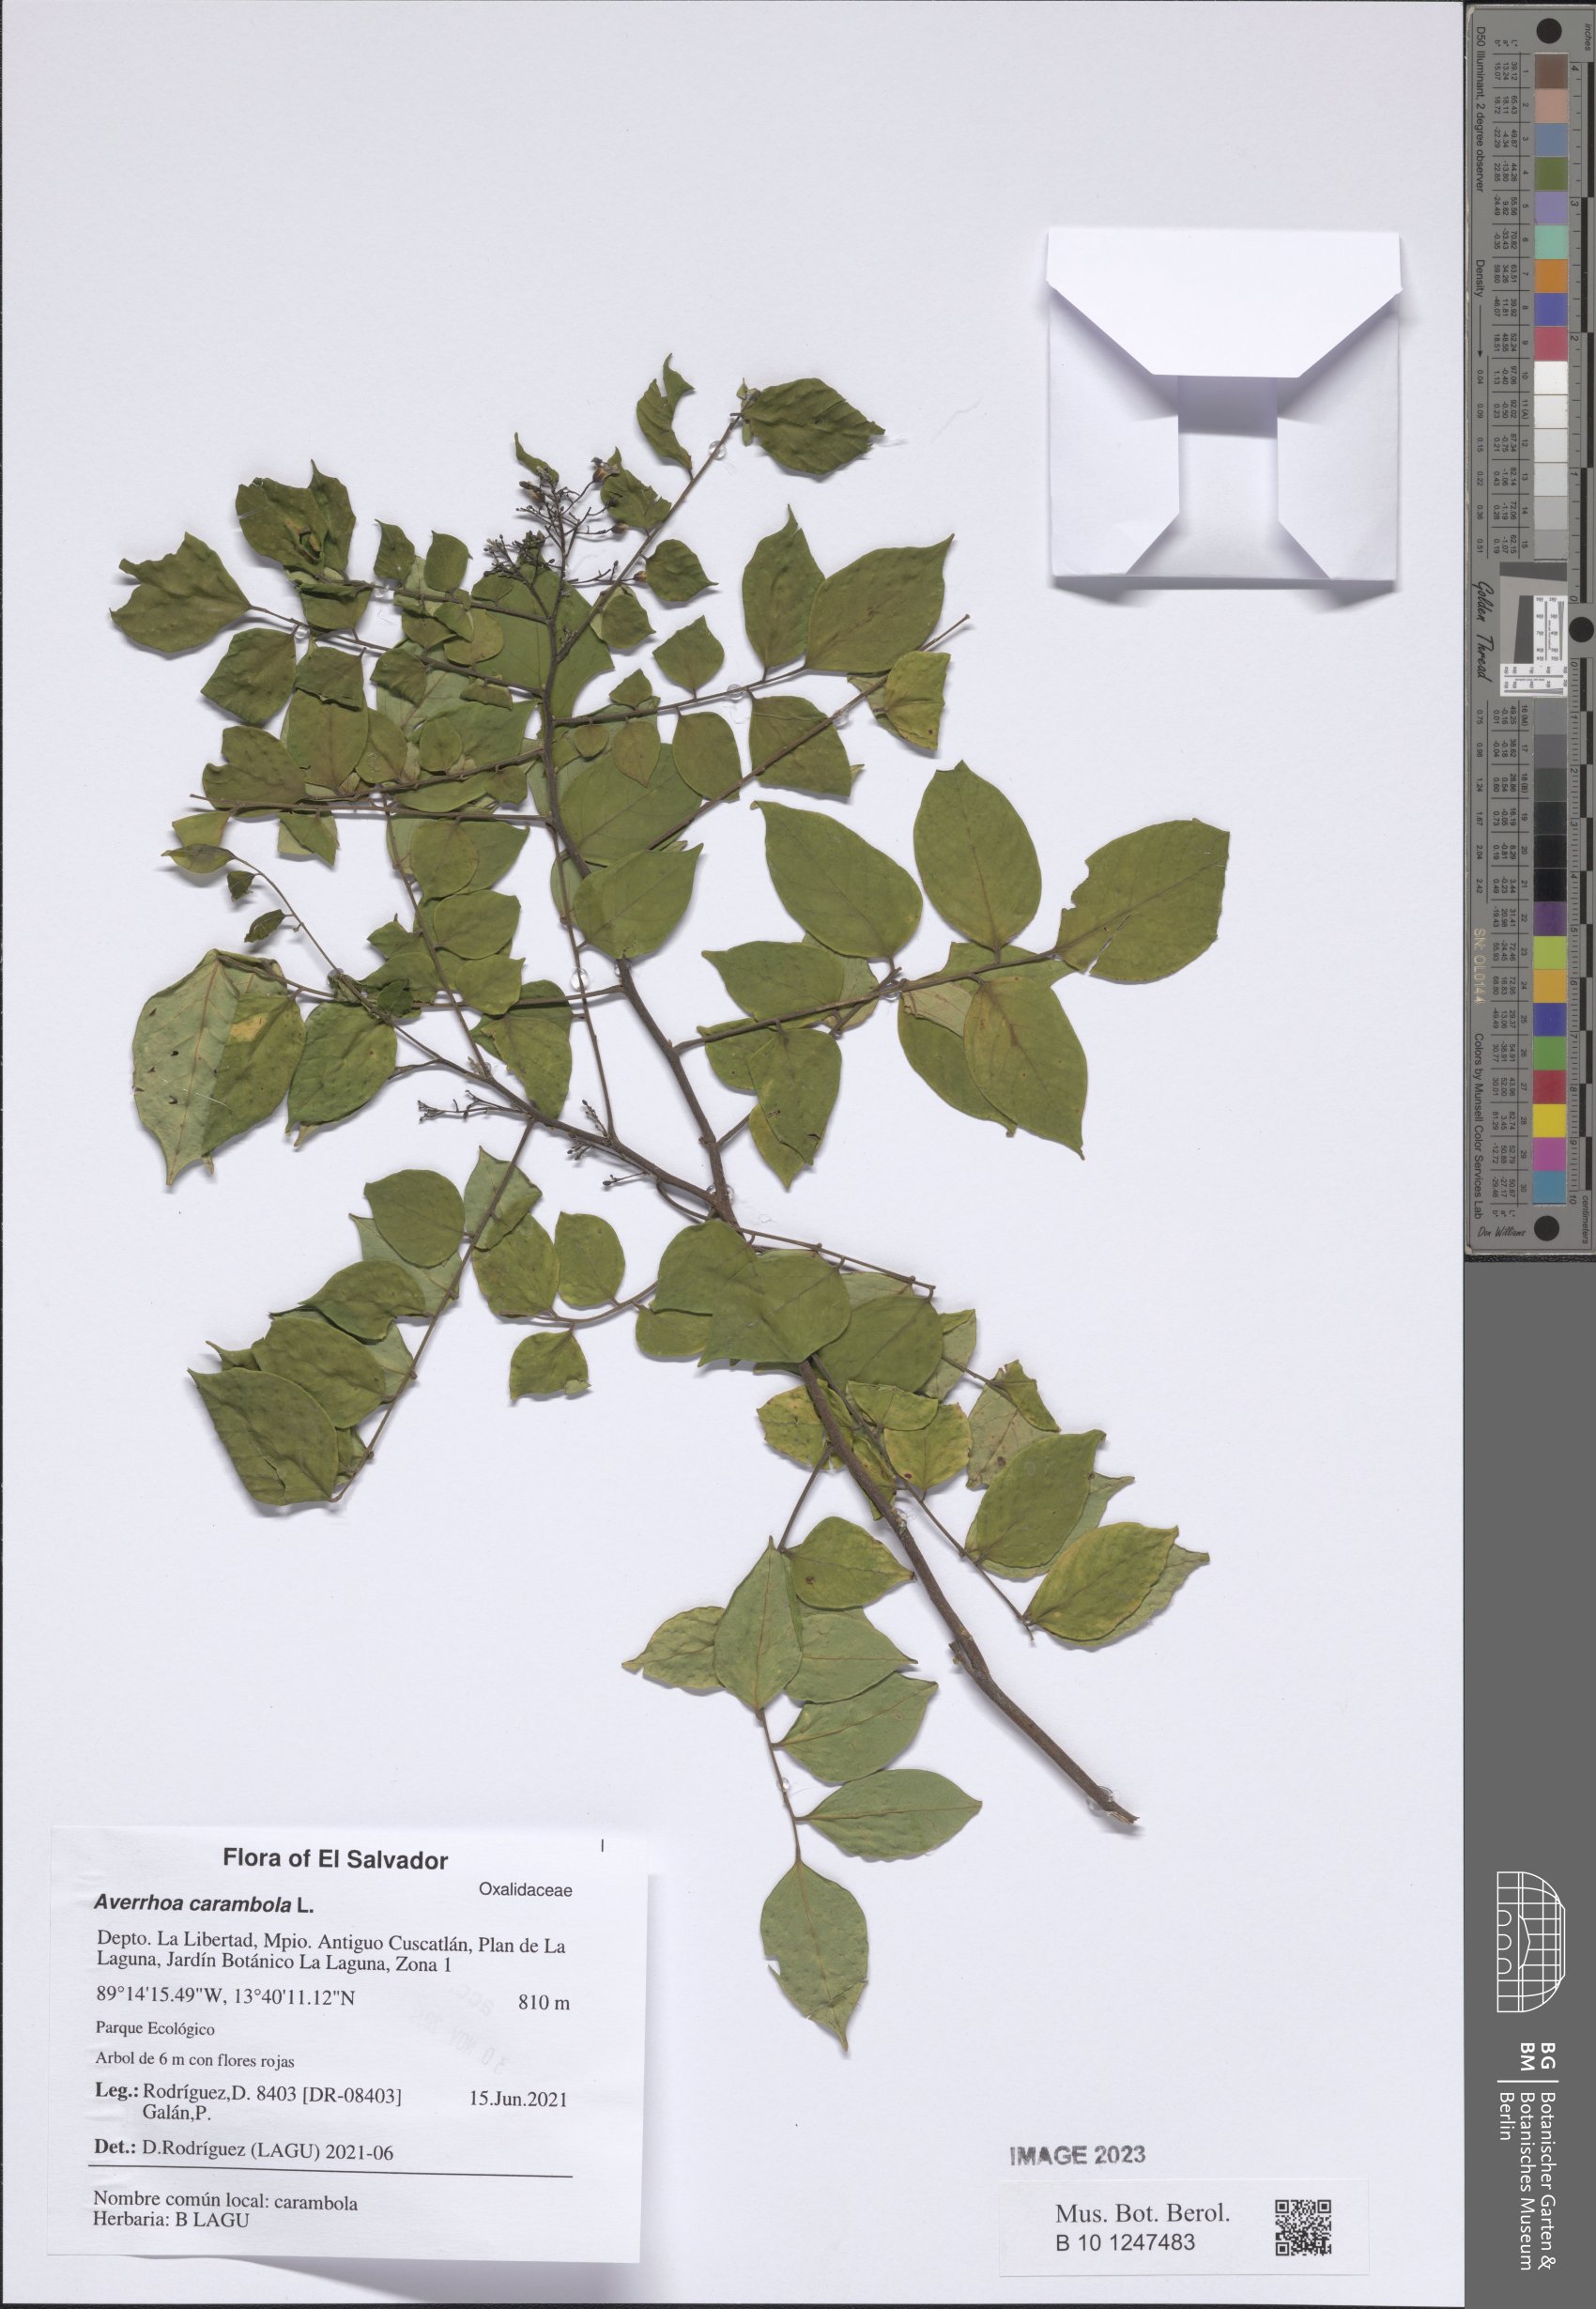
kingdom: Plantae
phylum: Tracheophyta
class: Magnoliopsida
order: Oxalidales
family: Oxalidaceae
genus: Averrhoa
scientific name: Averrhoa carambola
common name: Blimbing
